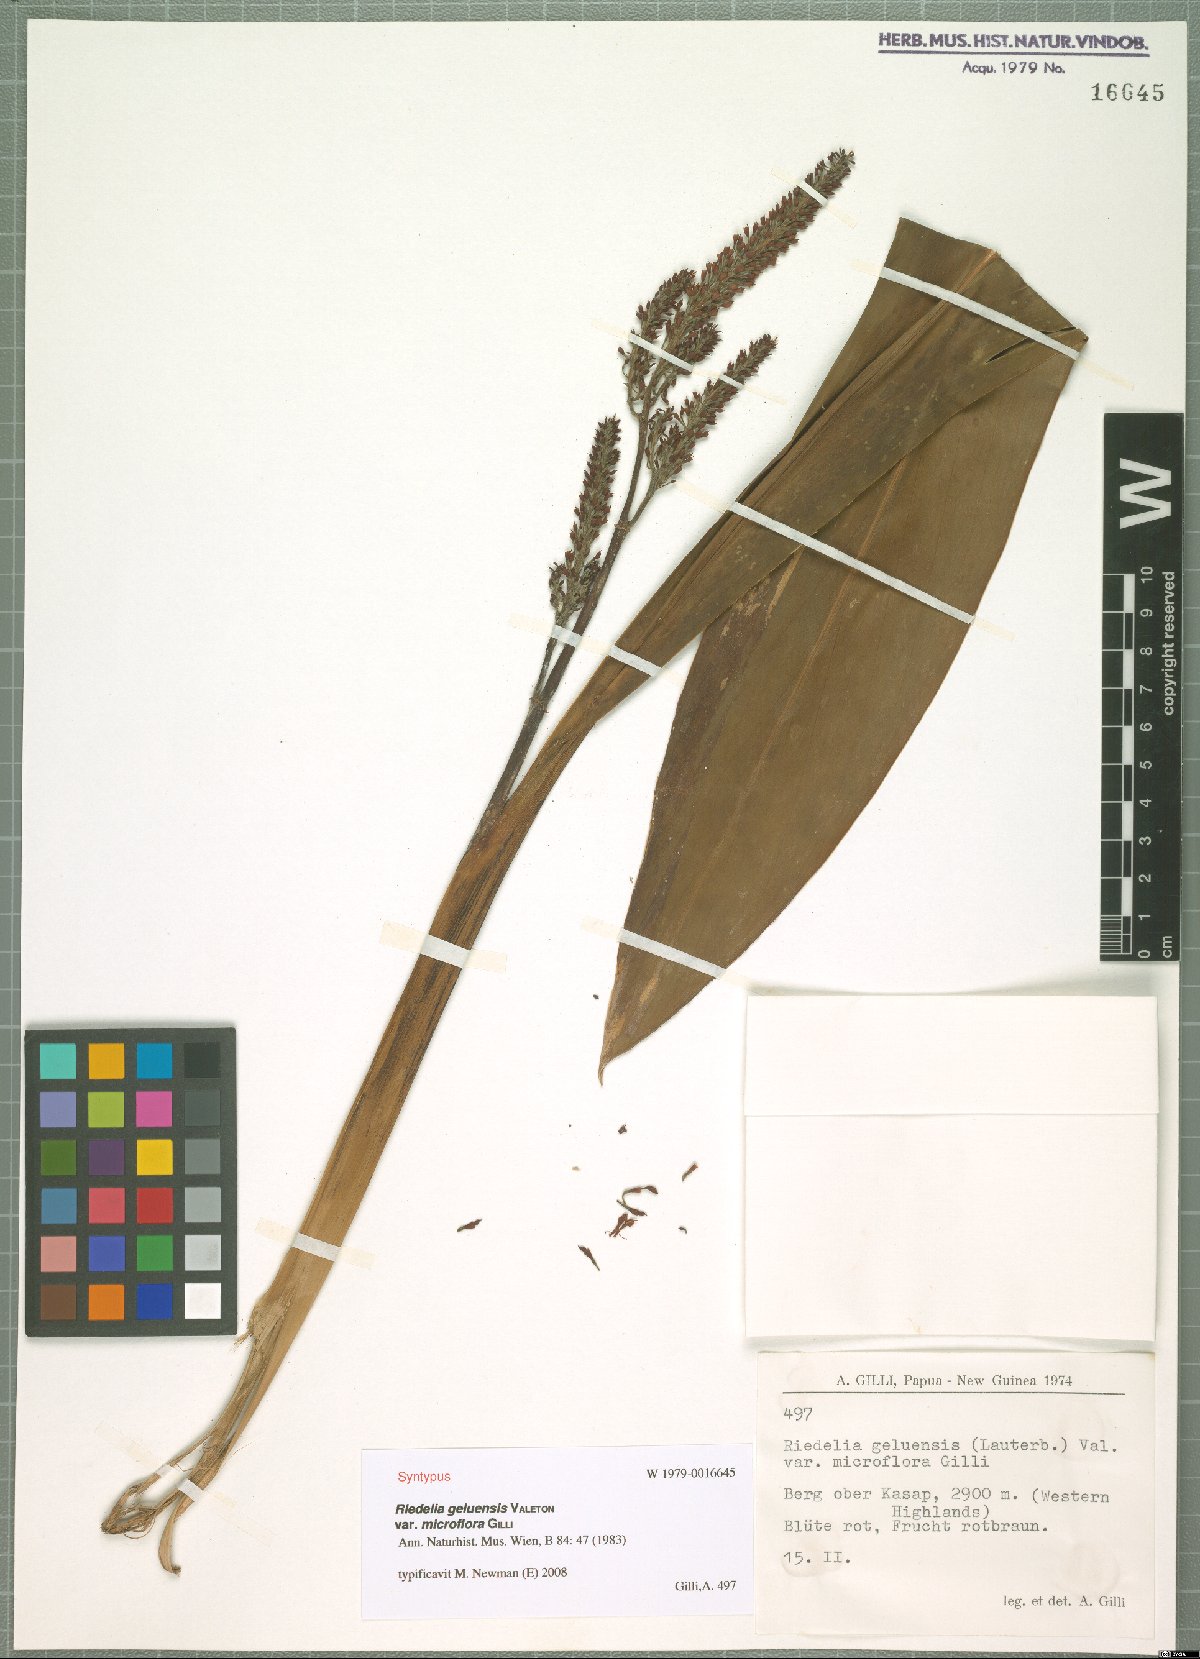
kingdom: Plantae
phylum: Tracheophyta
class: Liliopsida
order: Zingiberales
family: Zingiberaceae
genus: Riedelia
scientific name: Riedelia geluensis
